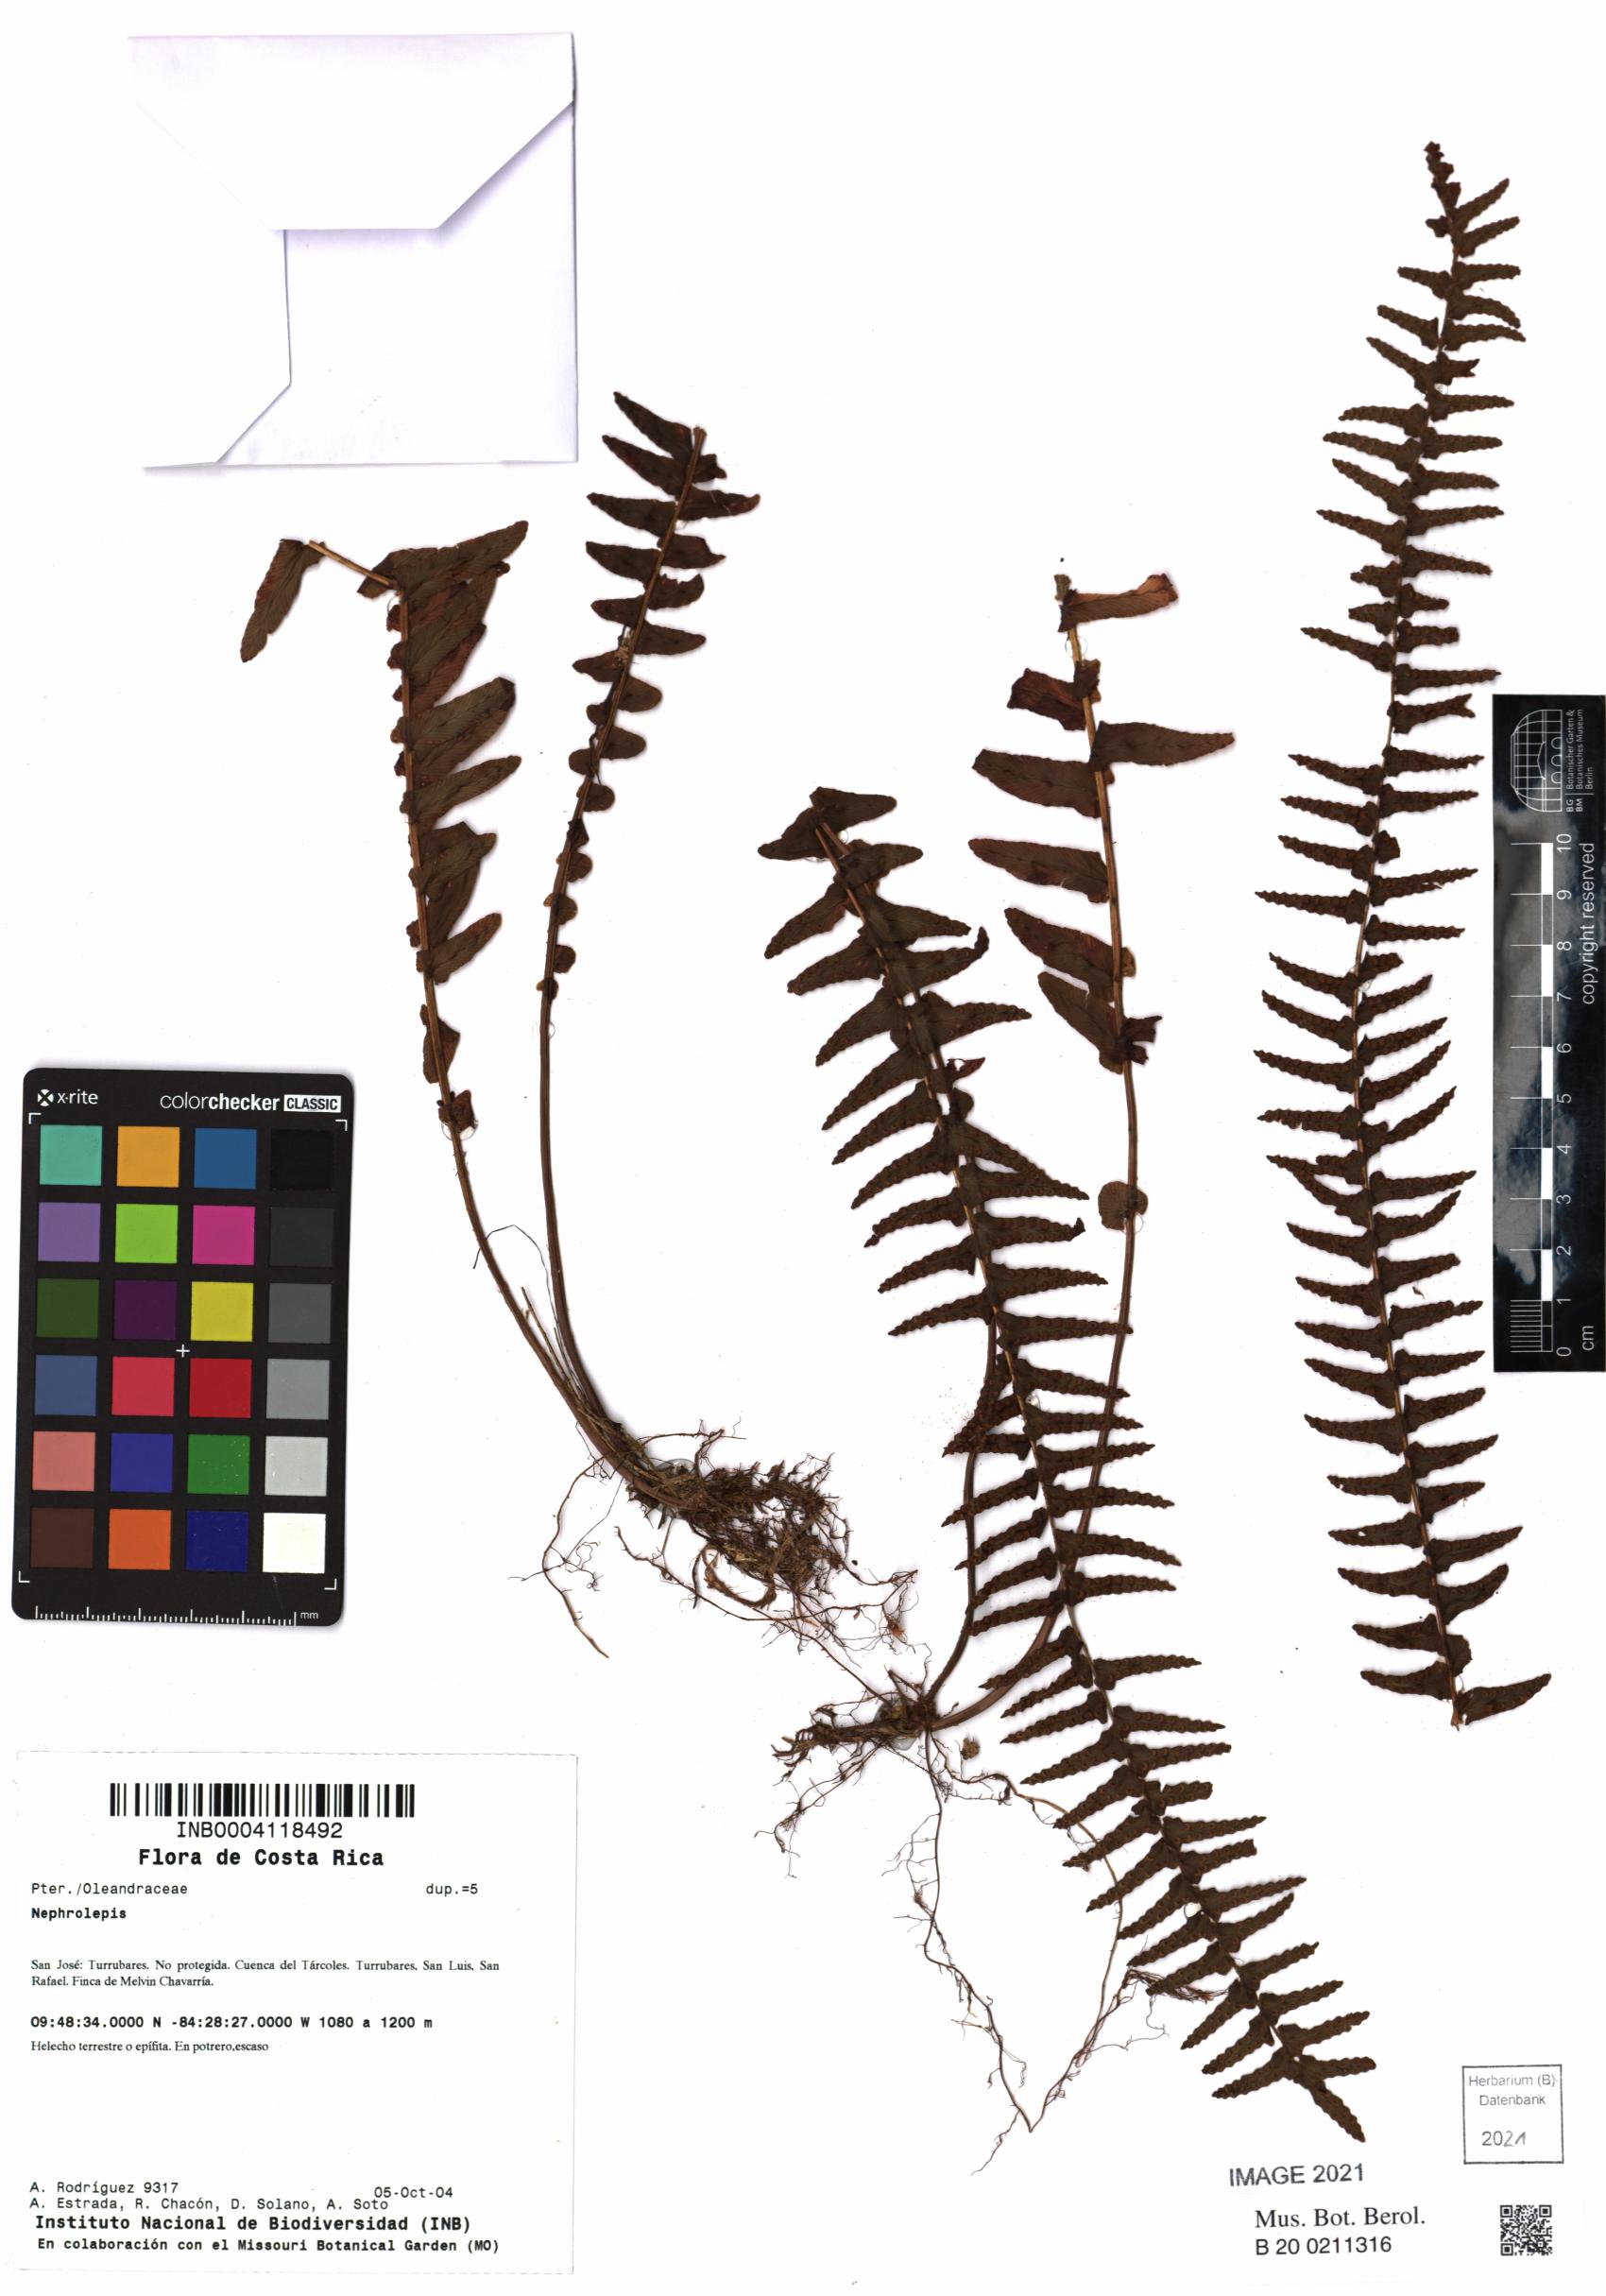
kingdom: Plantae
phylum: Tracheophyta
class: Polypodiopsida
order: Polypodiales
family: Nephrolepidaceae
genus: Nephrolepis
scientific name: Nephrolepis undulata
